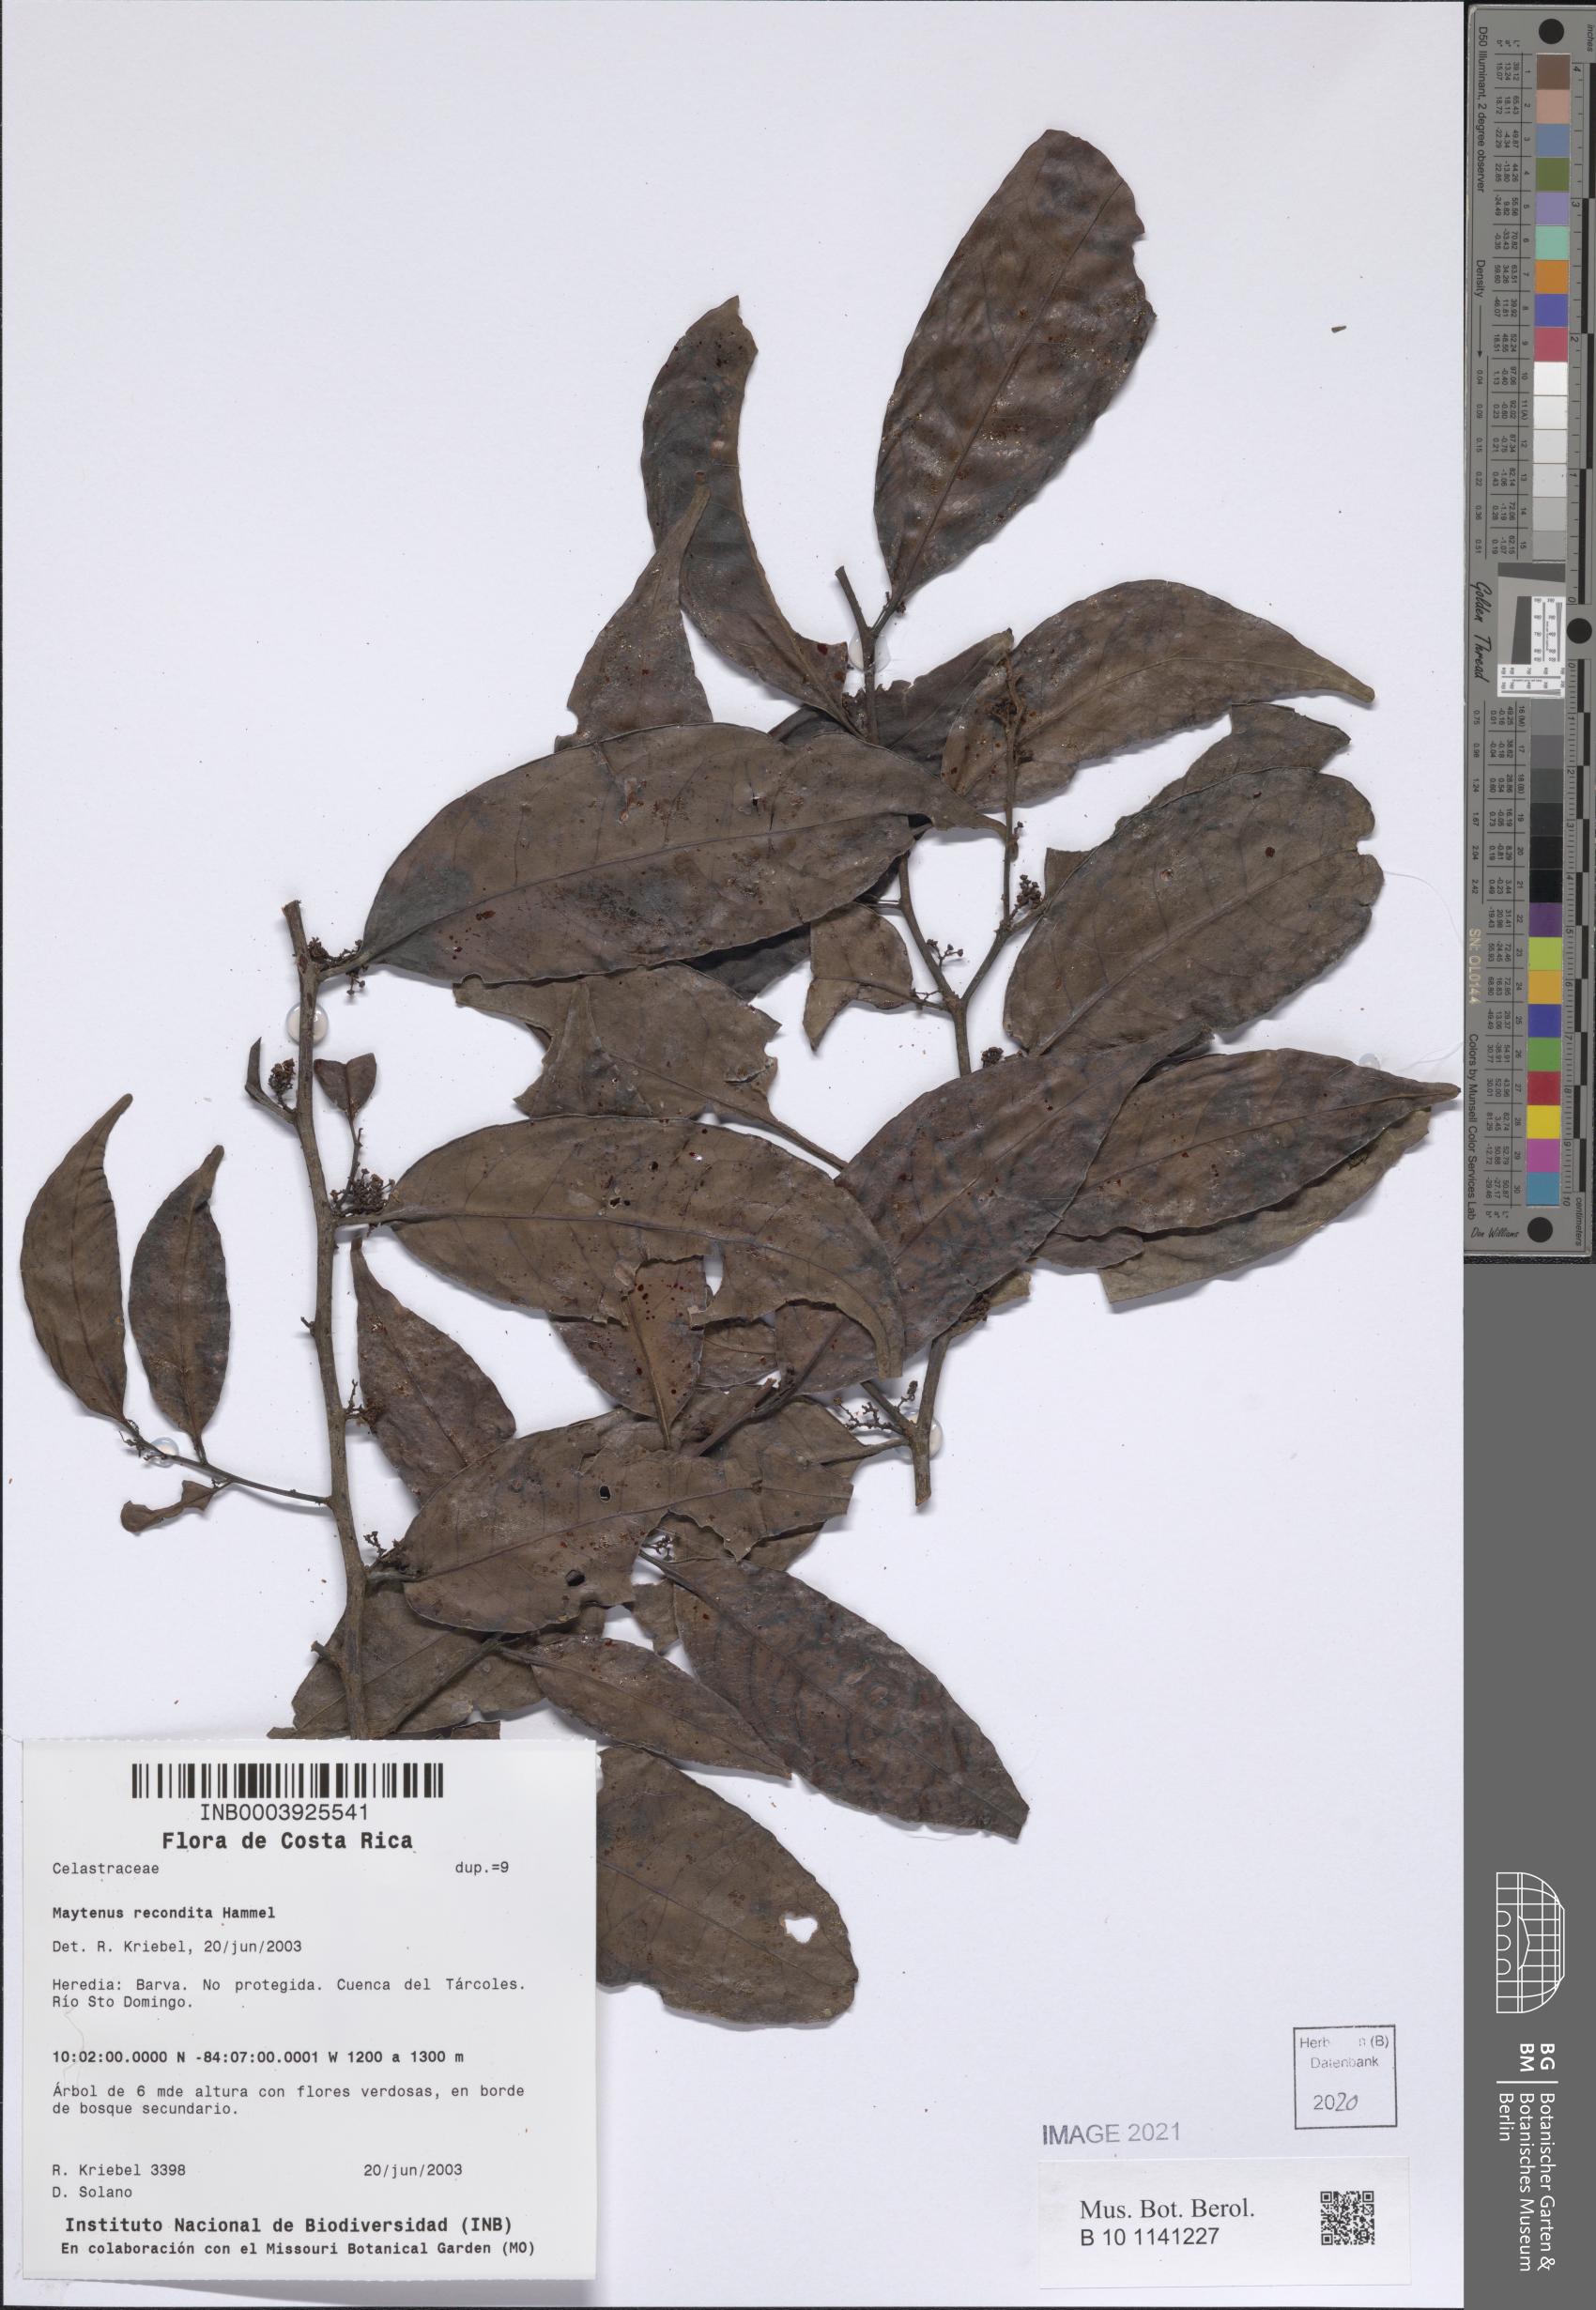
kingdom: Plantae
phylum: Tracheophyta
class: Magnoliopsida
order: Celastrales
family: Celastraceae
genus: Monteverdia
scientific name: Monteverdia recondita
